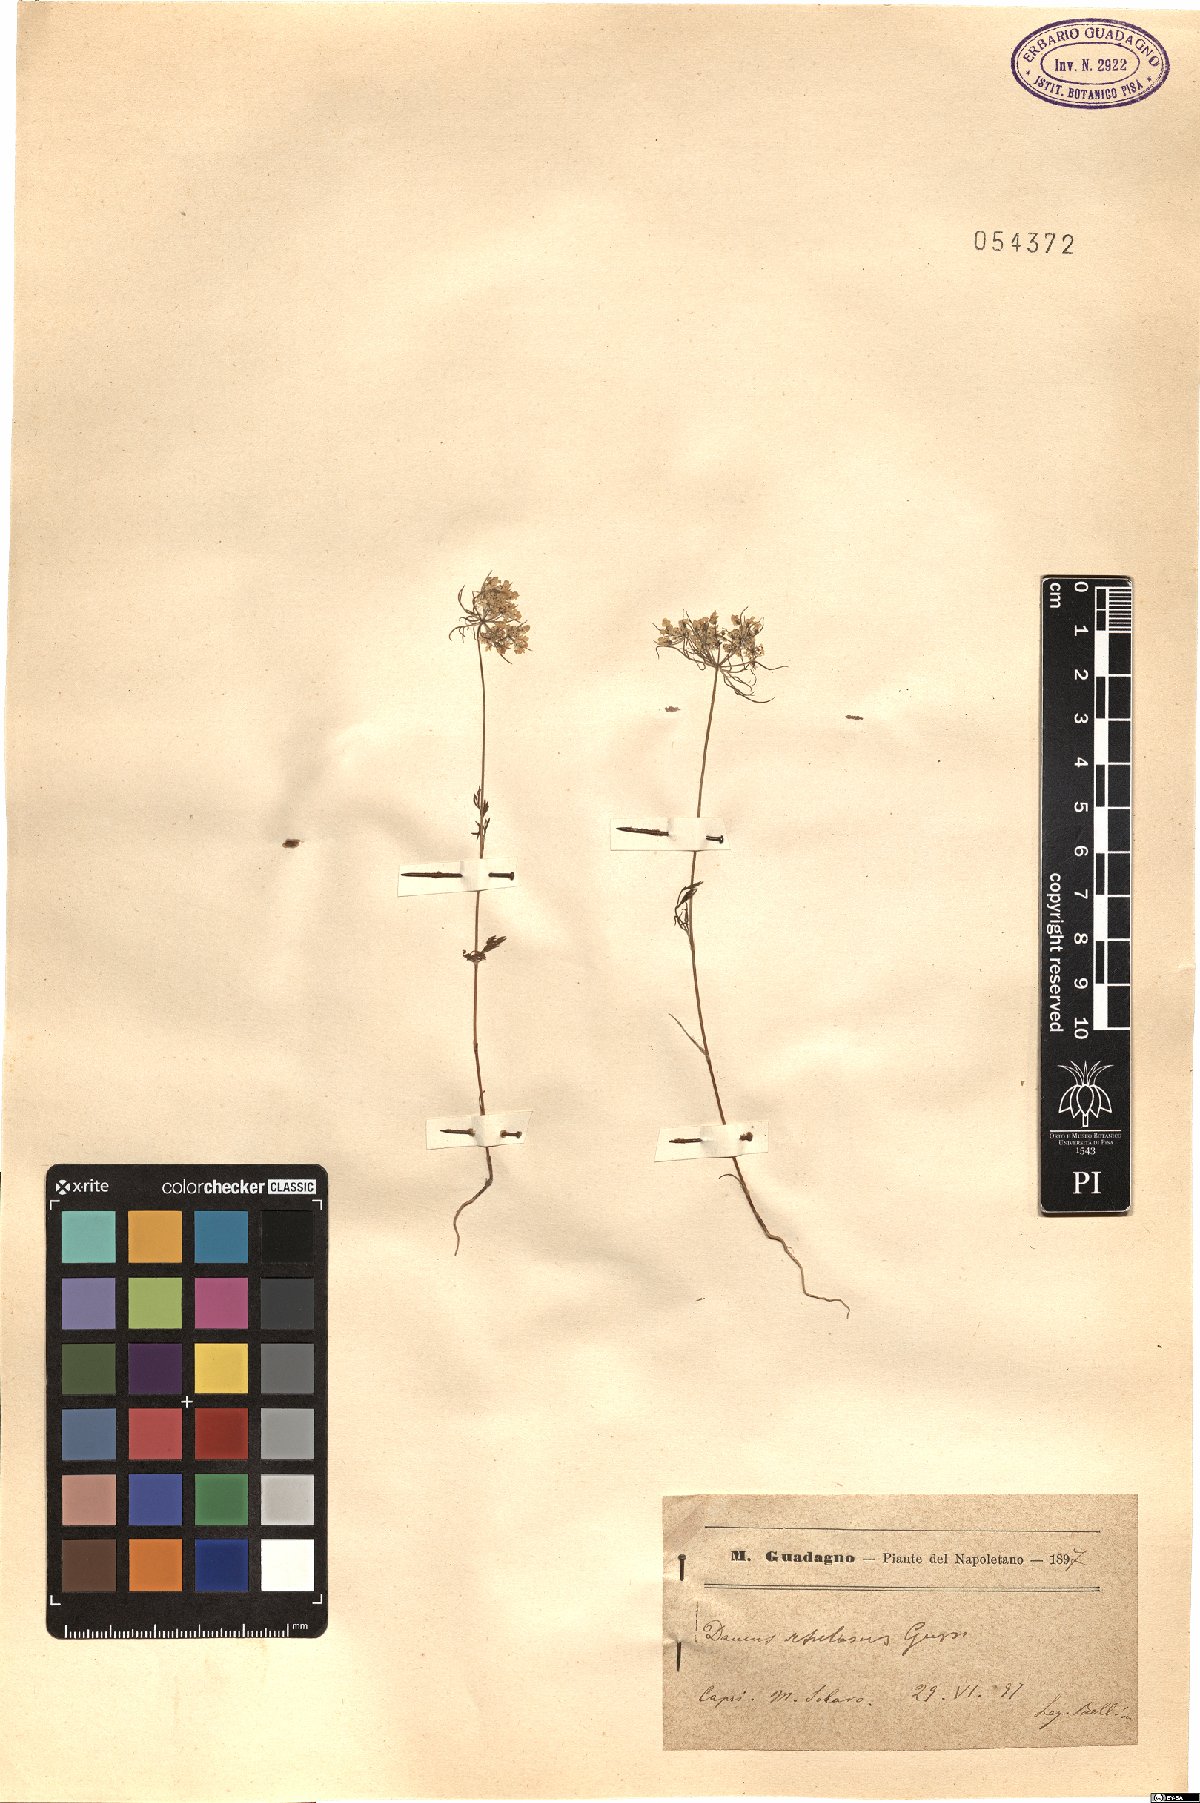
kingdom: Plantae
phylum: Tracheophyta
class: Magnoliopsida
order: Apiales
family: Apiaceae
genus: Daucus
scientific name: Daucus guttatus
